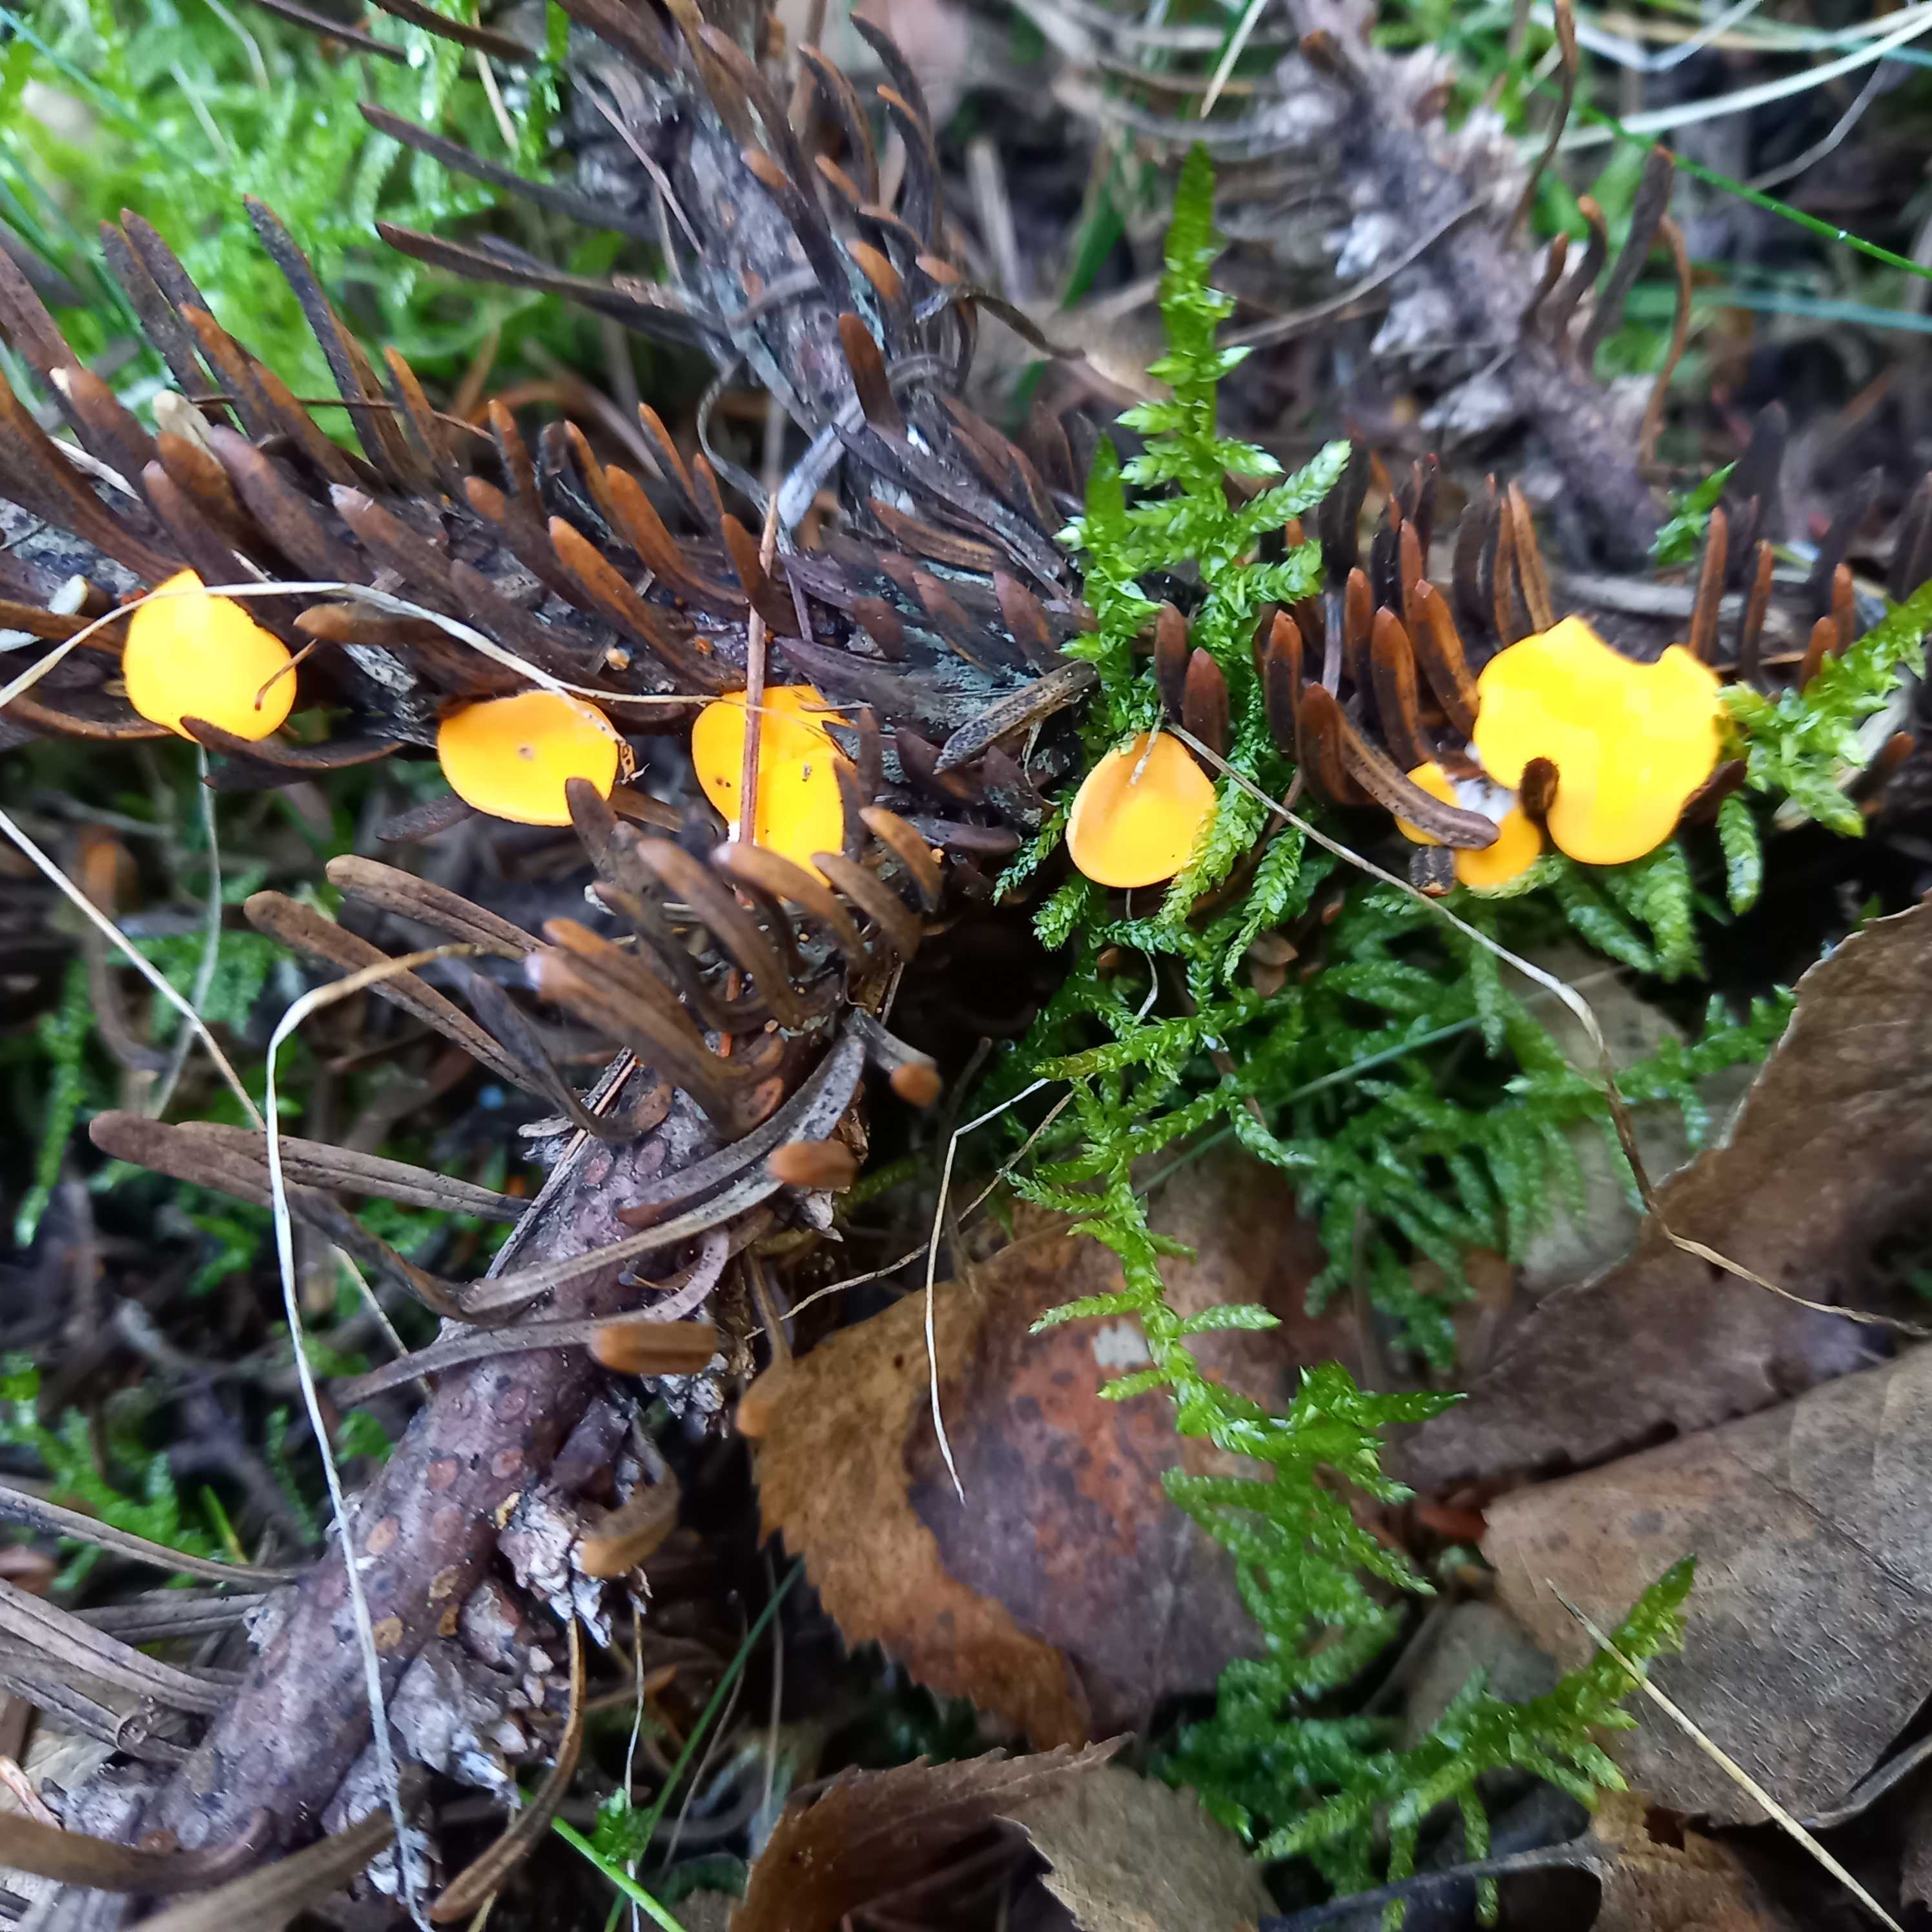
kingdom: Fungi
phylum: Ascomycota
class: Pezizomycetes
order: Pezizales
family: Sarcoscyphaceae
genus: Pithya
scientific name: Pithya vulgaris
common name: stor dukatbæger
